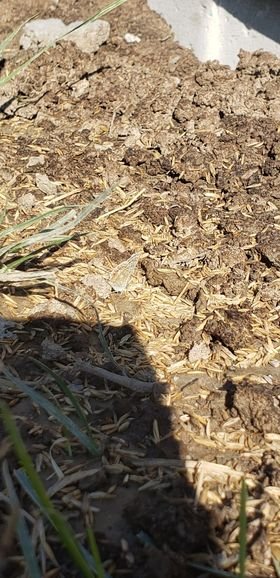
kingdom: Animalia
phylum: Arthropoda
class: Insecta
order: Lepidoptera
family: Lycaenidae
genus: Polyommatus
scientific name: Polyommatus icarus
